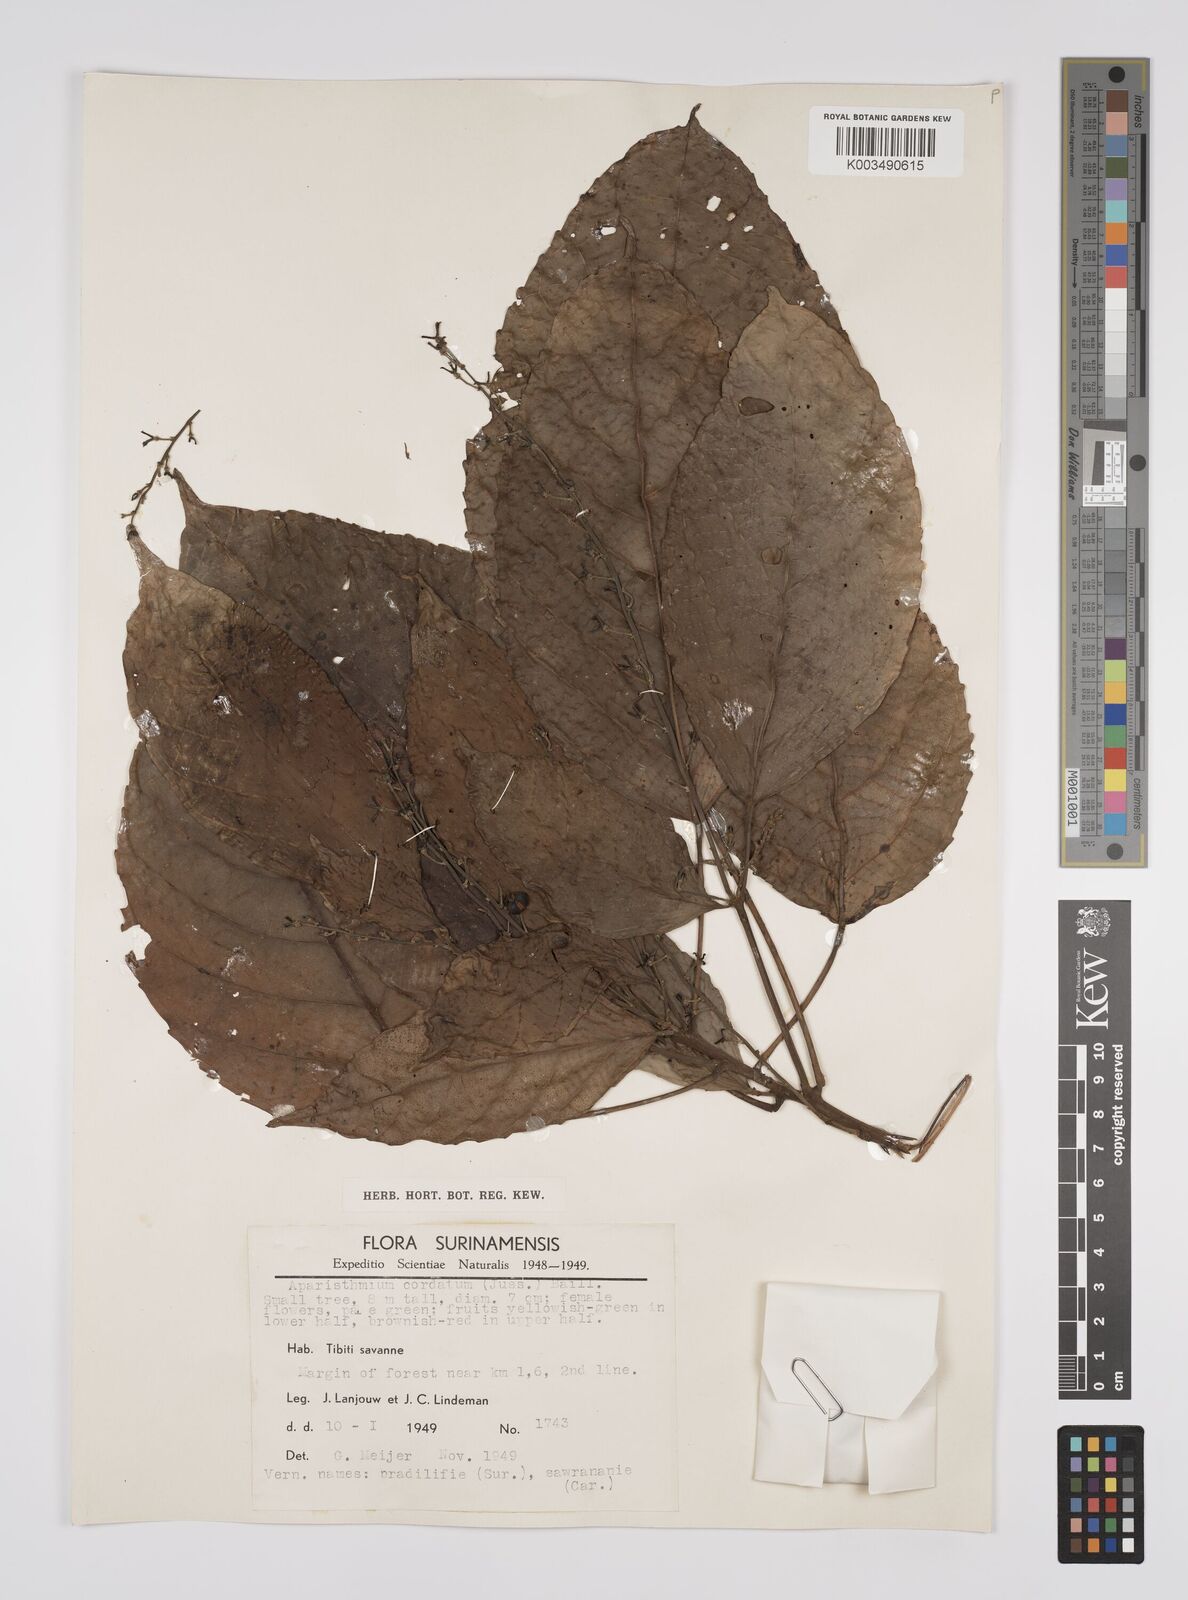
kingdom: Plantae
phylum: Tracheophyta
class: Magnoliopsida
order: Malpighiales
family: Euphorbiaceae
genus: Aparisthmium
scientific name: Aparisthmium cordatum
